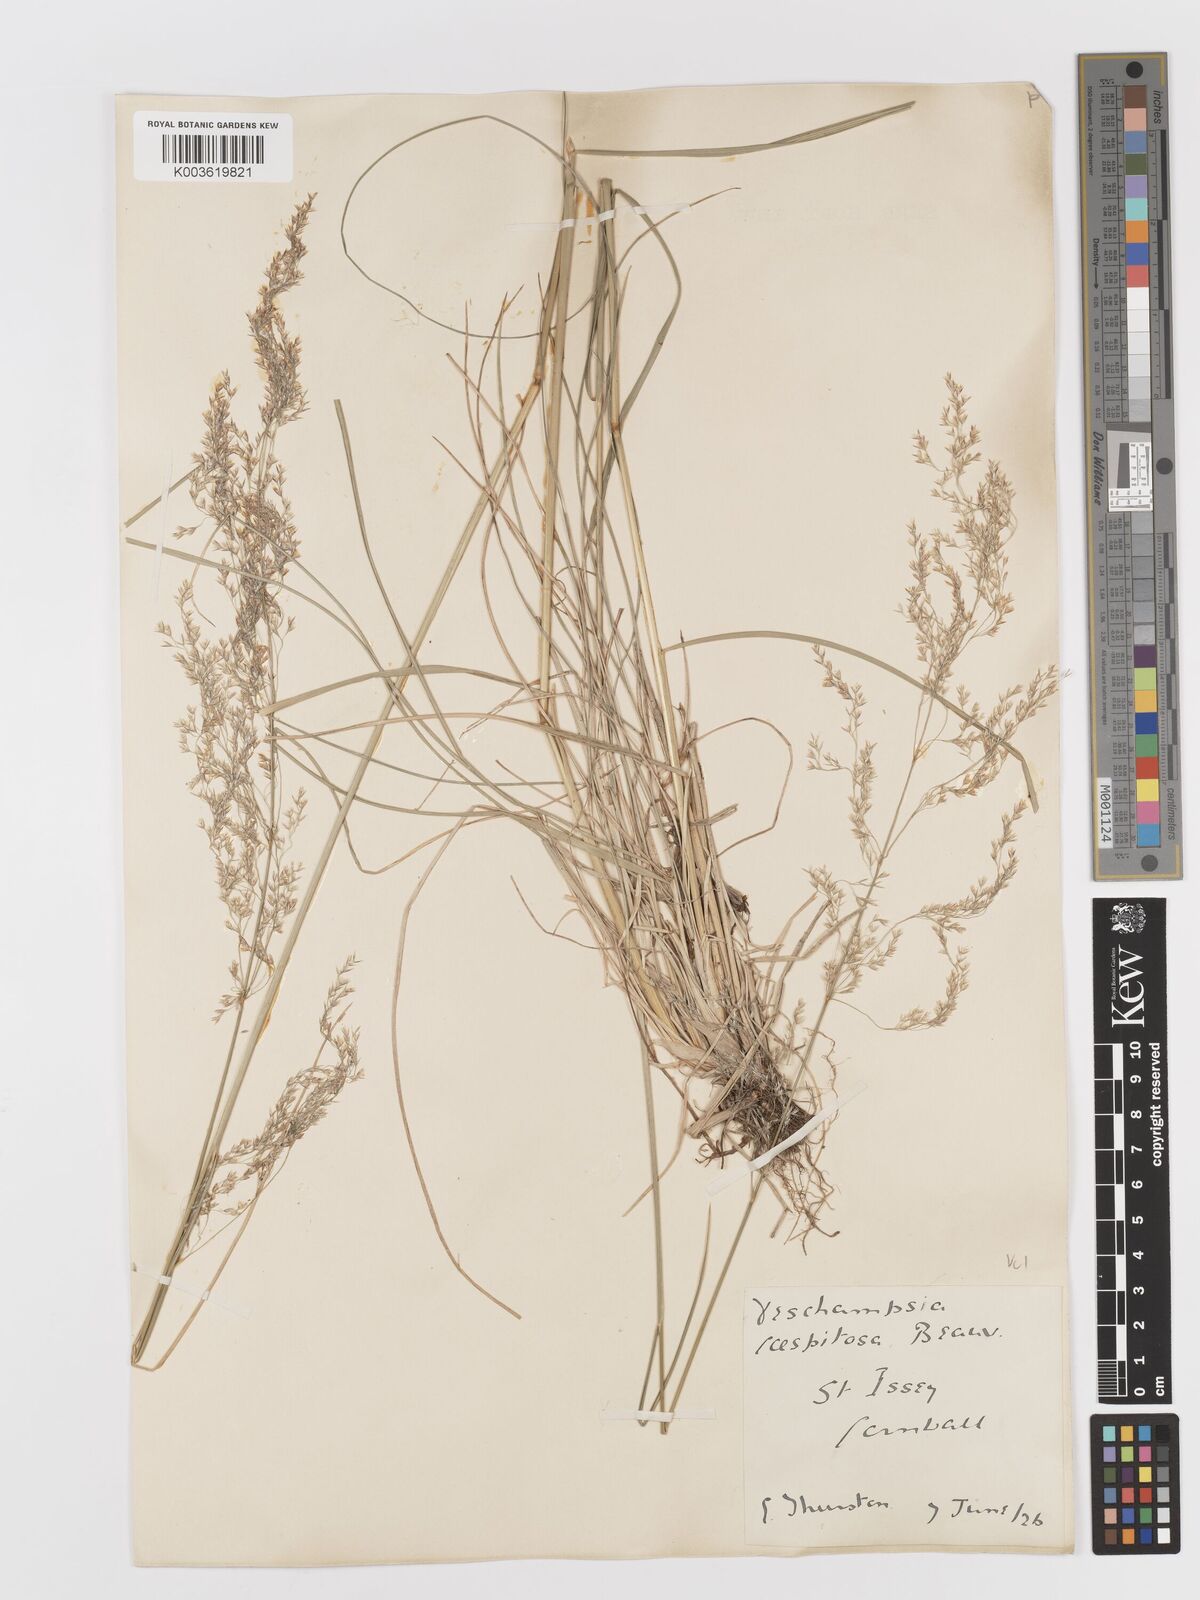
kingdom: Plantae
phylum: Tracheophyta
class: Liliopsida
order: Poales
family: Poaceae
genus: Deschampsia
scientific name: Deschampsia cespitosa
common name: Tufted hair-grass
